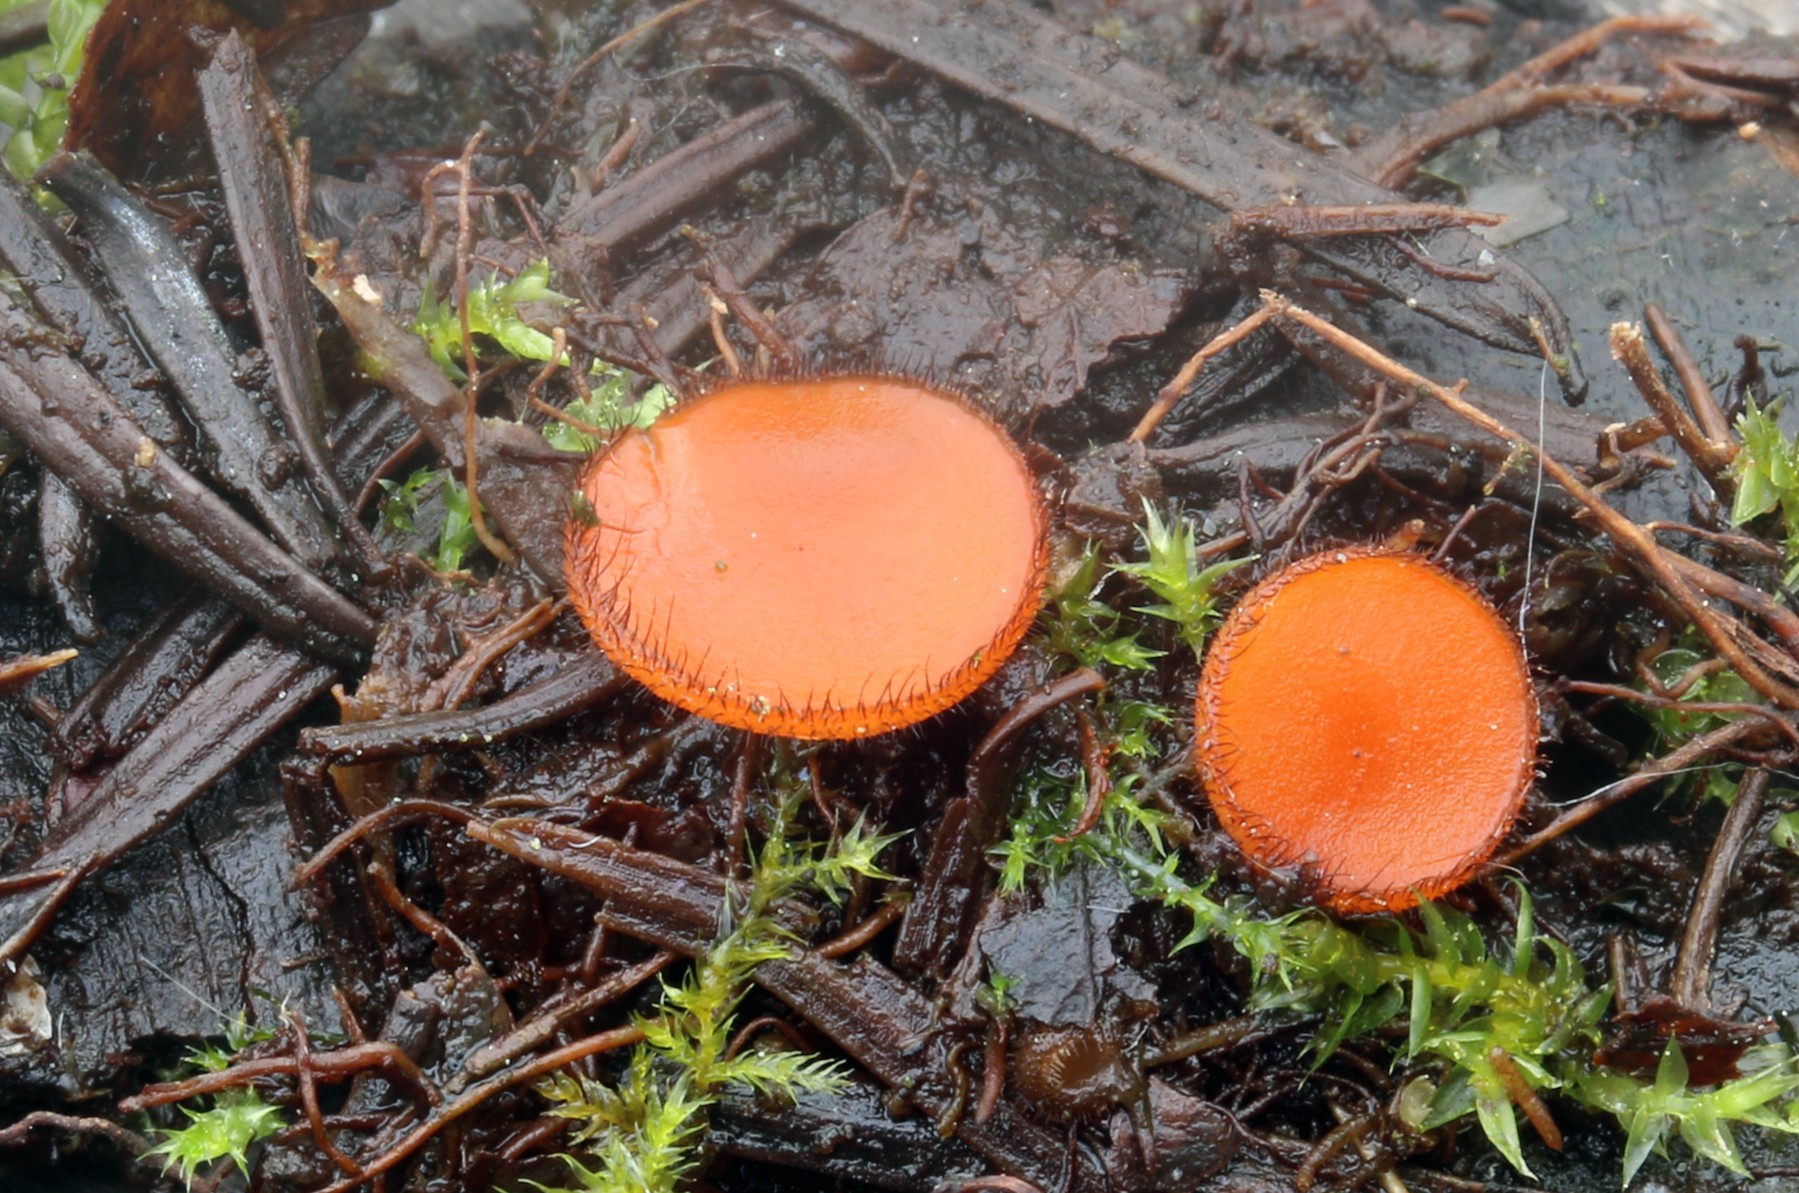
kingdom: Fungi
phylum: Ascomycota
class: Pezizomycetes
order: Pezizales
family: Pyronemataceae
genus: Scutellinia
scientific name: Scutellinia scutellata
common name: frynset skjoldbæger
